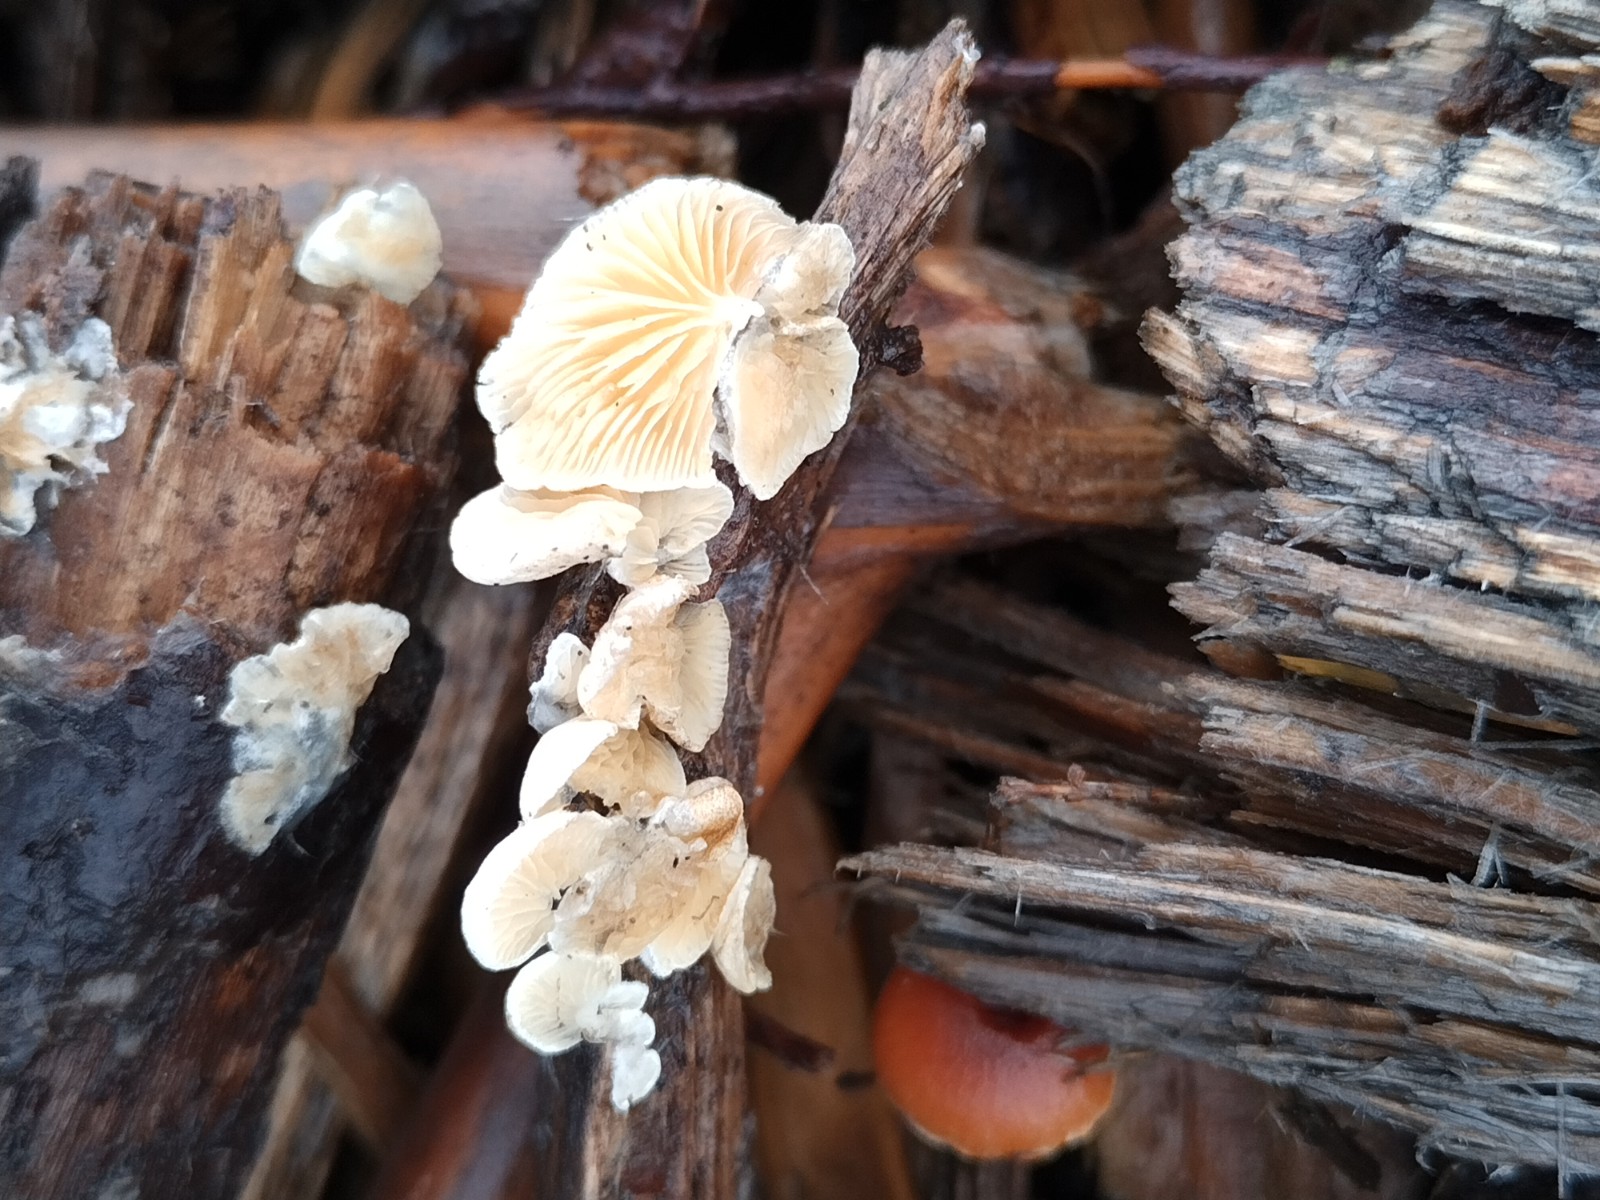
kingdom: Fungi
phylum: Basidiomycota
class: Agaricomycetes
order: Agaricales
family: Crepidotaceae
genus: Crepidotus
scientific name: Crepidotus
